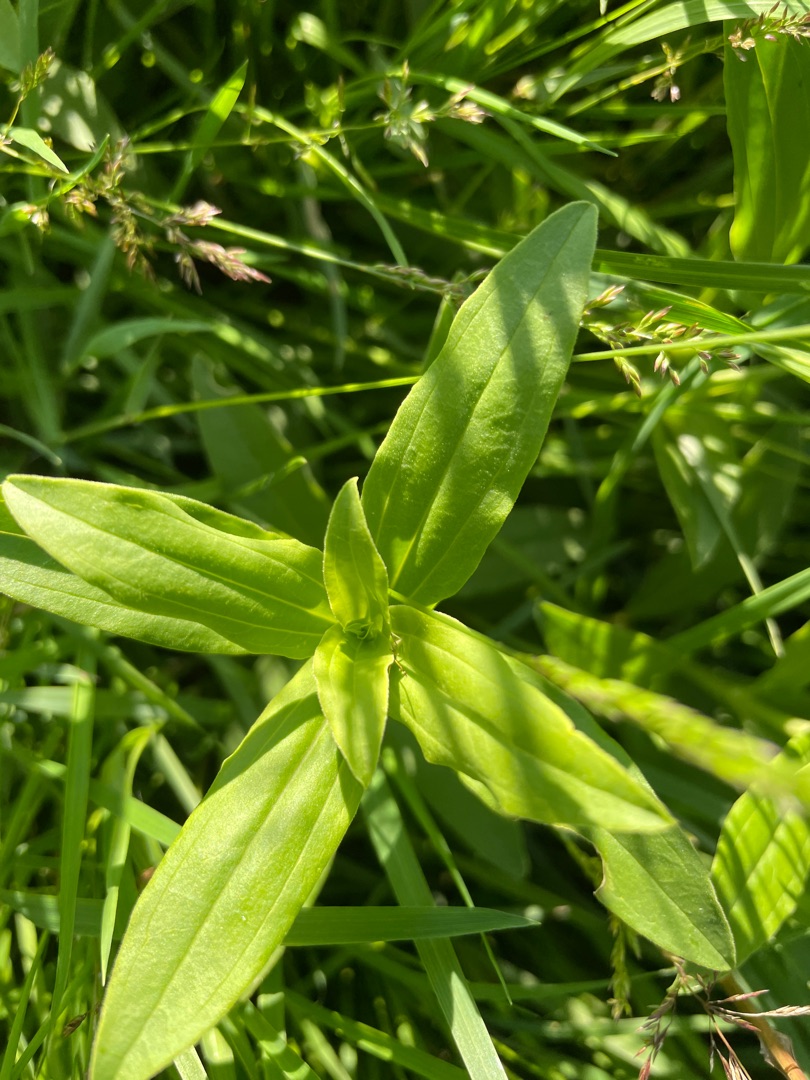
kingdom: Plantae
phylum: Tracheophyta
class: Magnoliopsida
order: Caryophyllales
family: Caryophyllaceae
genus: Saponaria
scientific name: Saponaria officinalis
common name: Sæbeurt
